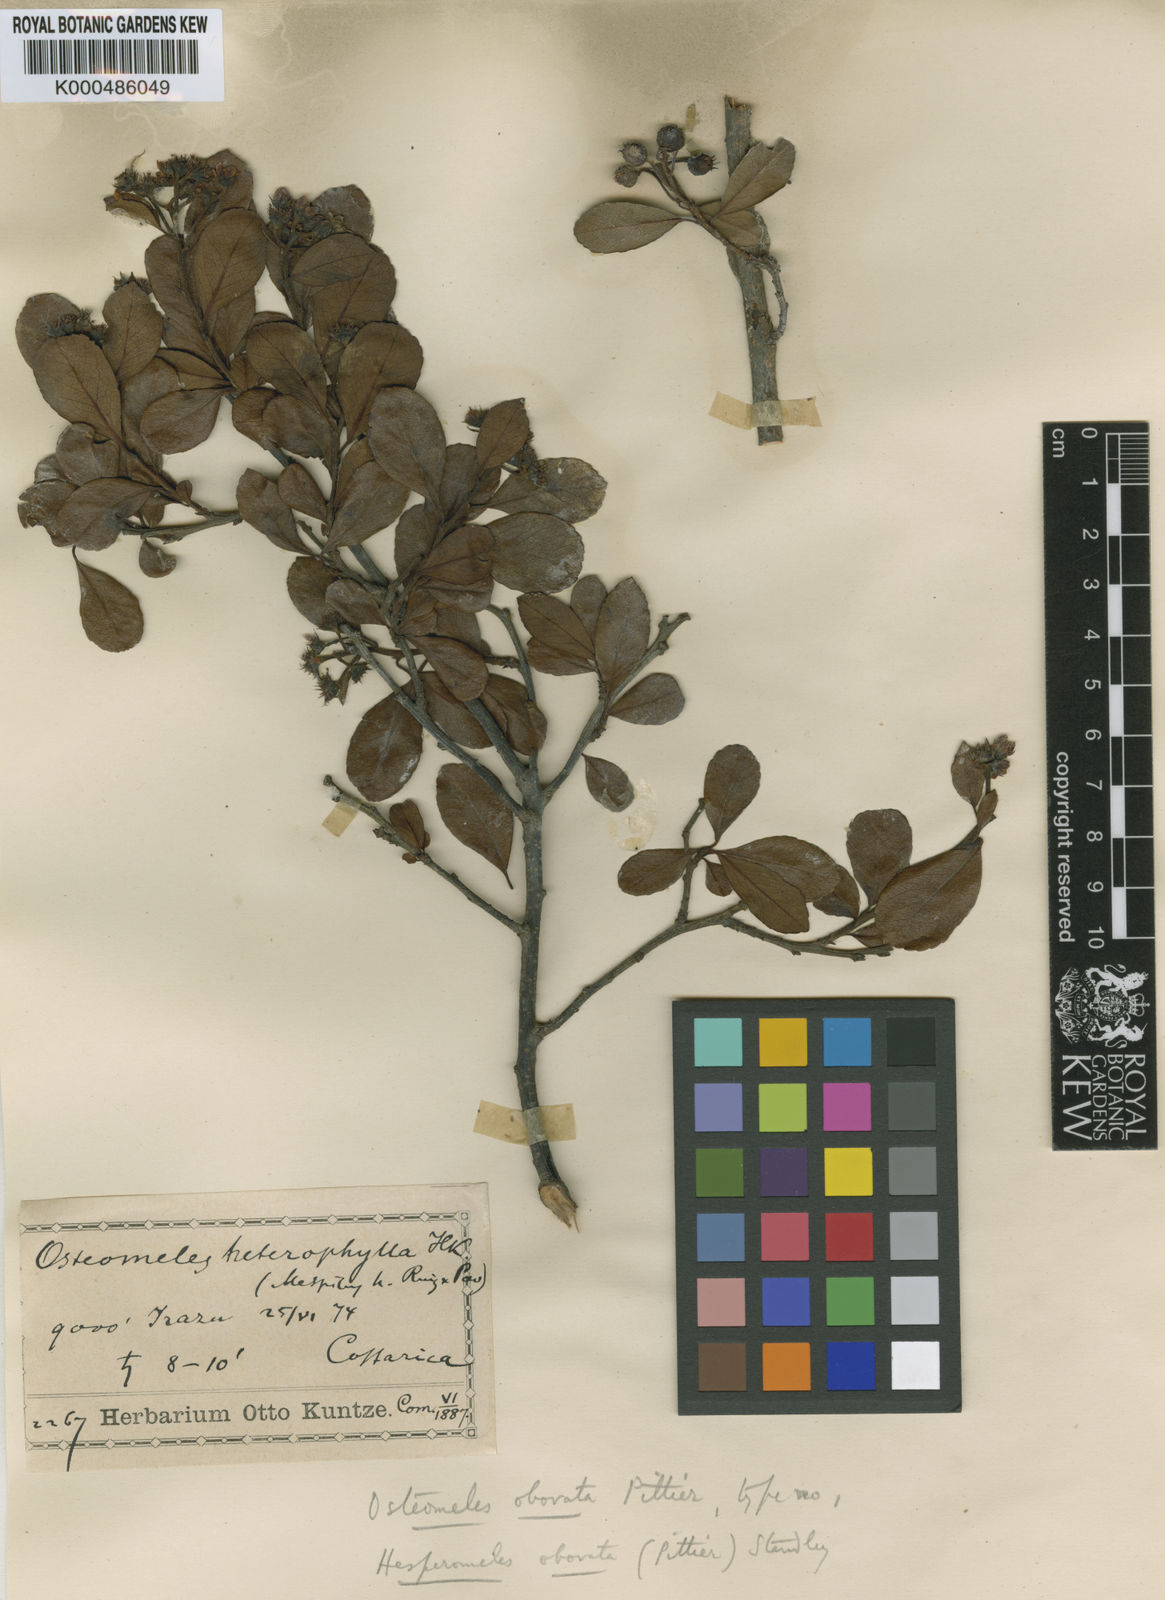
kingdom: Plantae
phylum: Tracheophyta
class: Magnoliopsida
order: Rosales
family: Rosaceae
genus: Hesperomeles
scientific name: Hesperomeles obtusifolia
